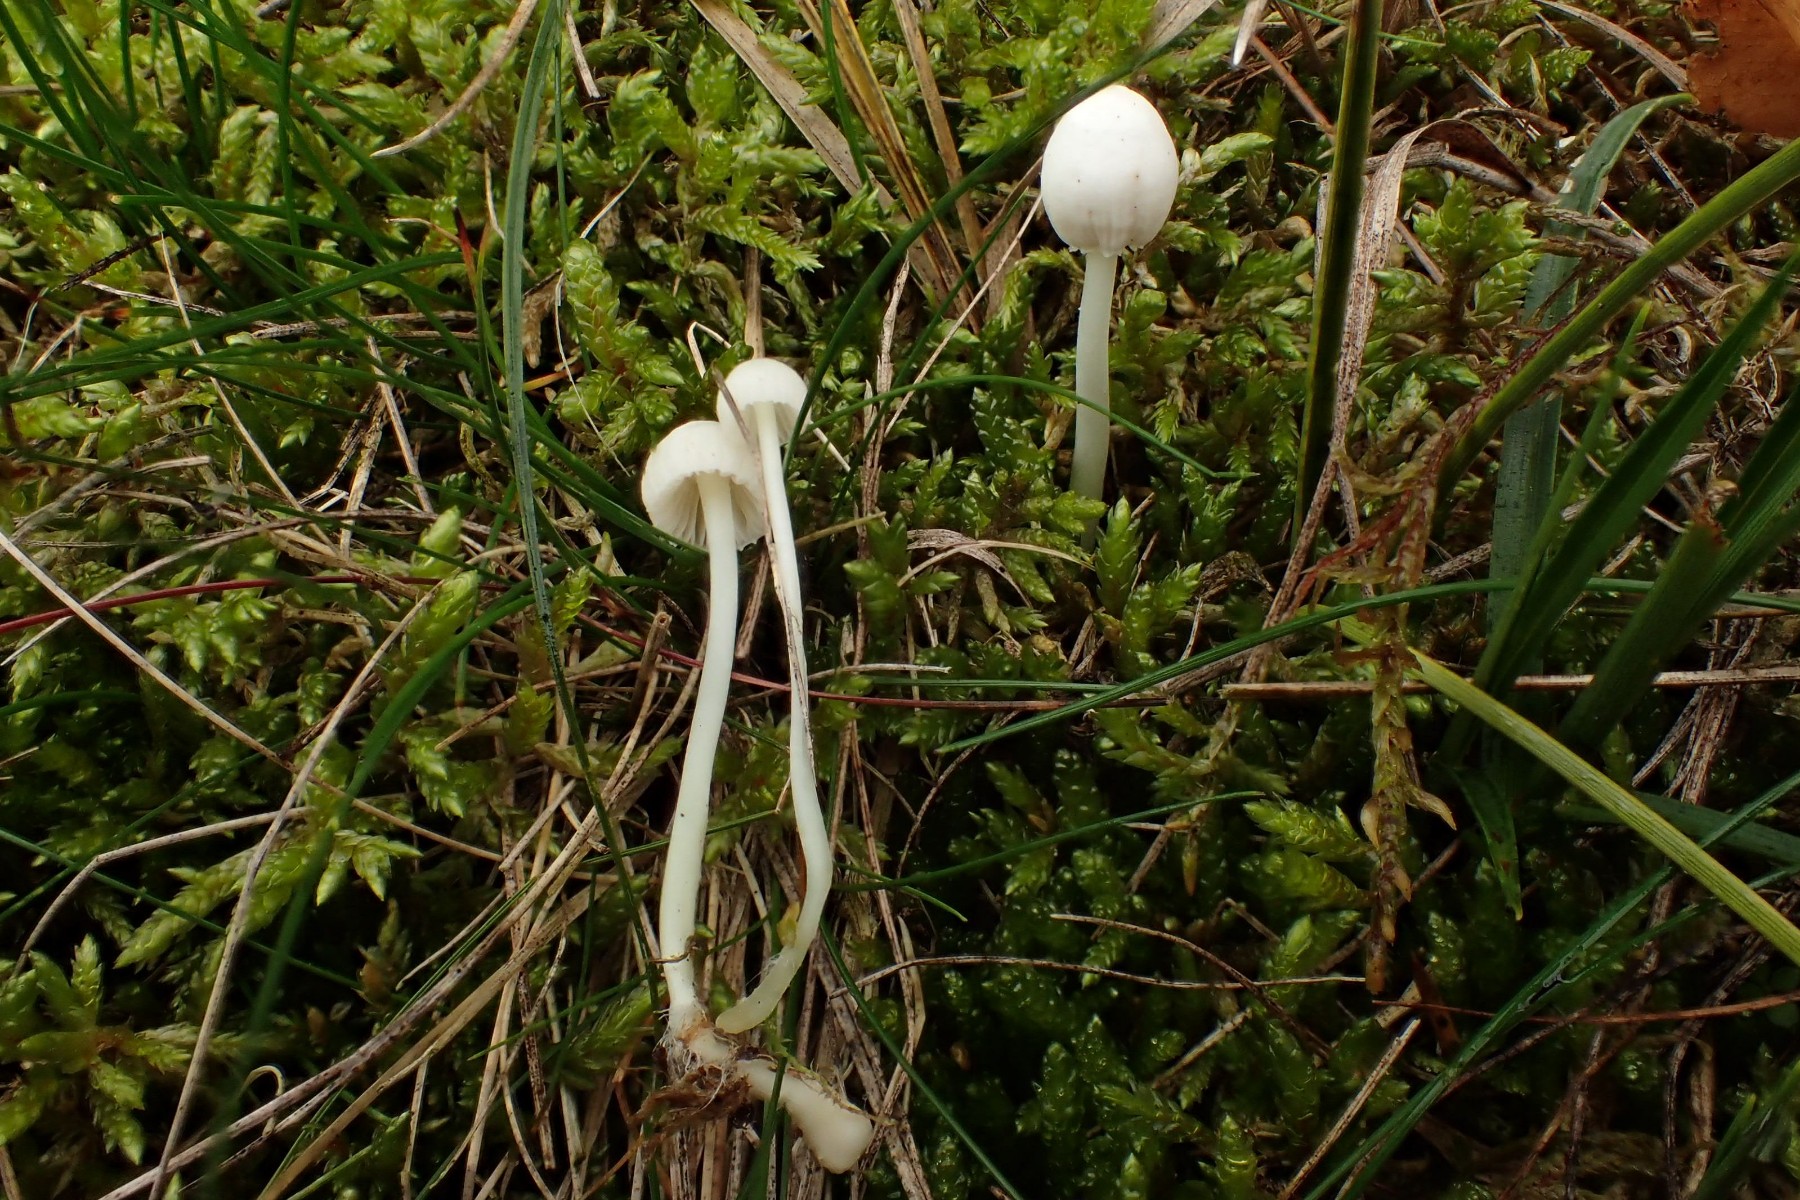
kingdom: Fungi
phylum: Basidiomycota
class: Agaricomycetes
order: Agaricales
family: Mycenaceae
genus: Mycena
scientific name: Mycena epipterygia
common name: Yellowleg bonnet
